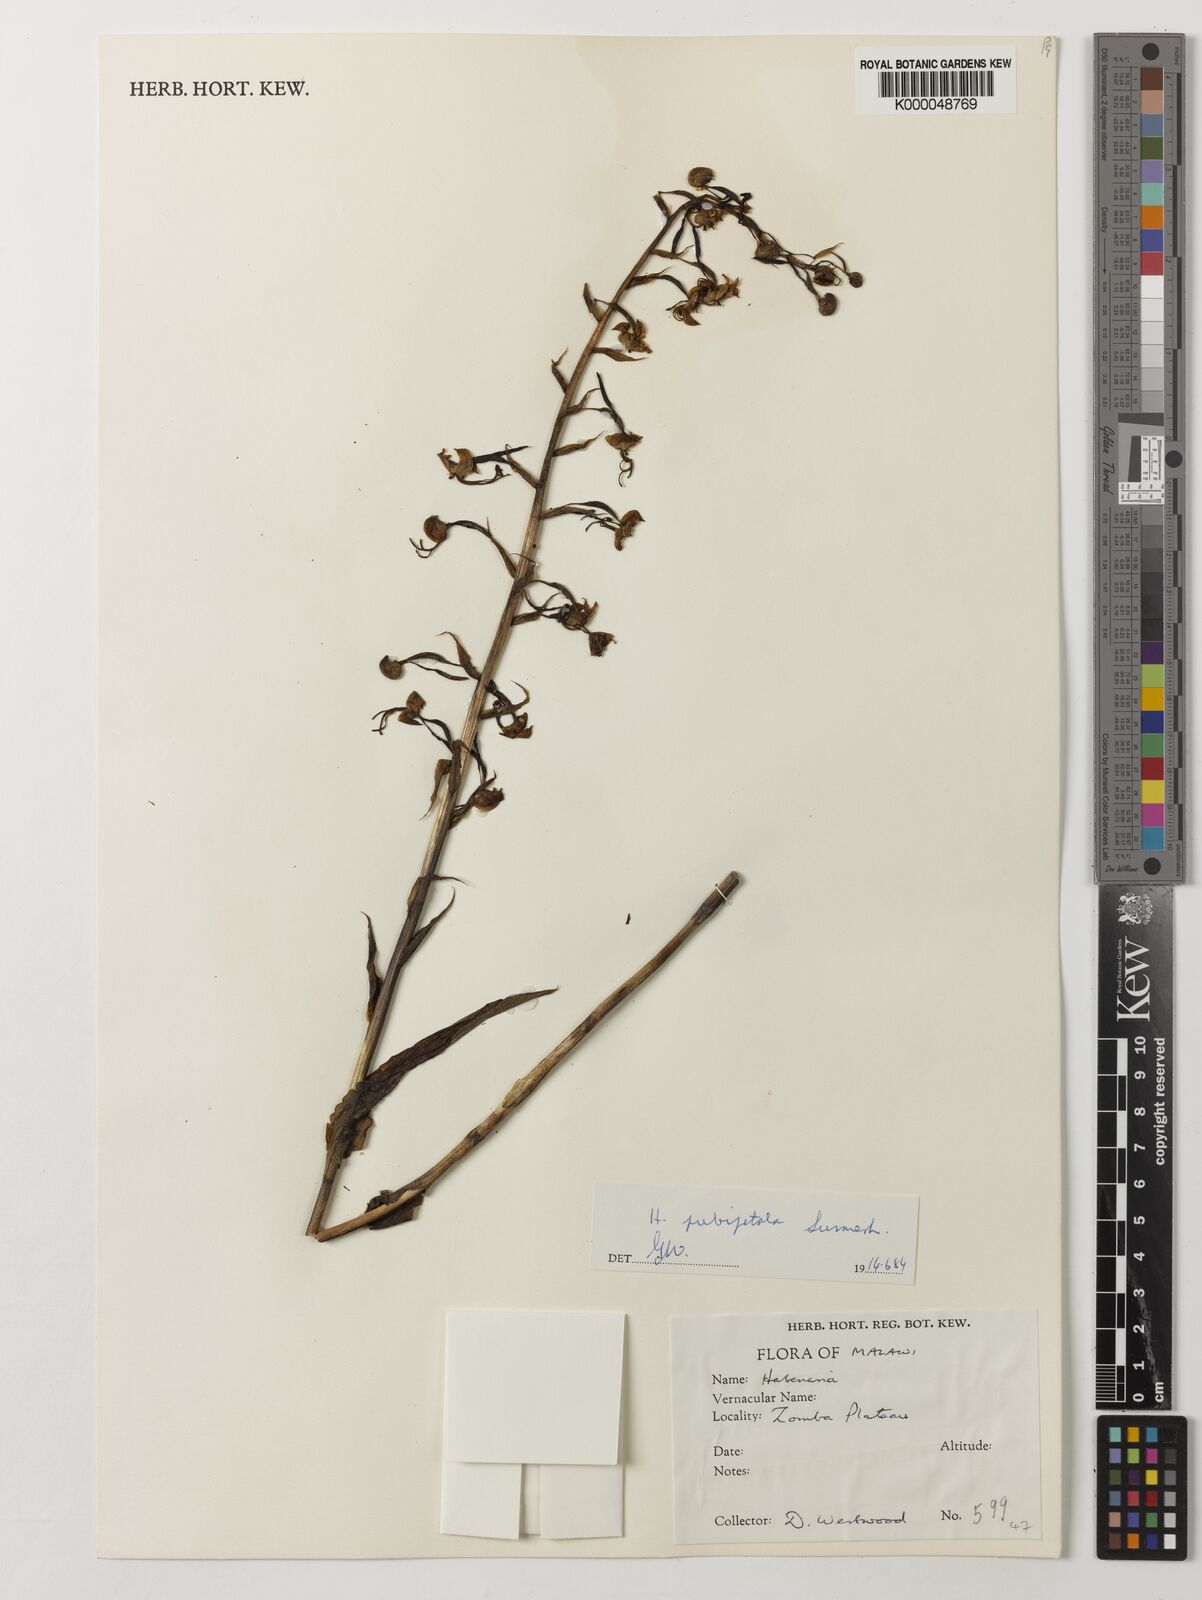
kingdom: Plantae
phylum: Tracheophyta
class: Liliopsida
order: Asparagales
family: Orchidaceae
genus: Habenaria
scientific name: Habenaria pubipetala
